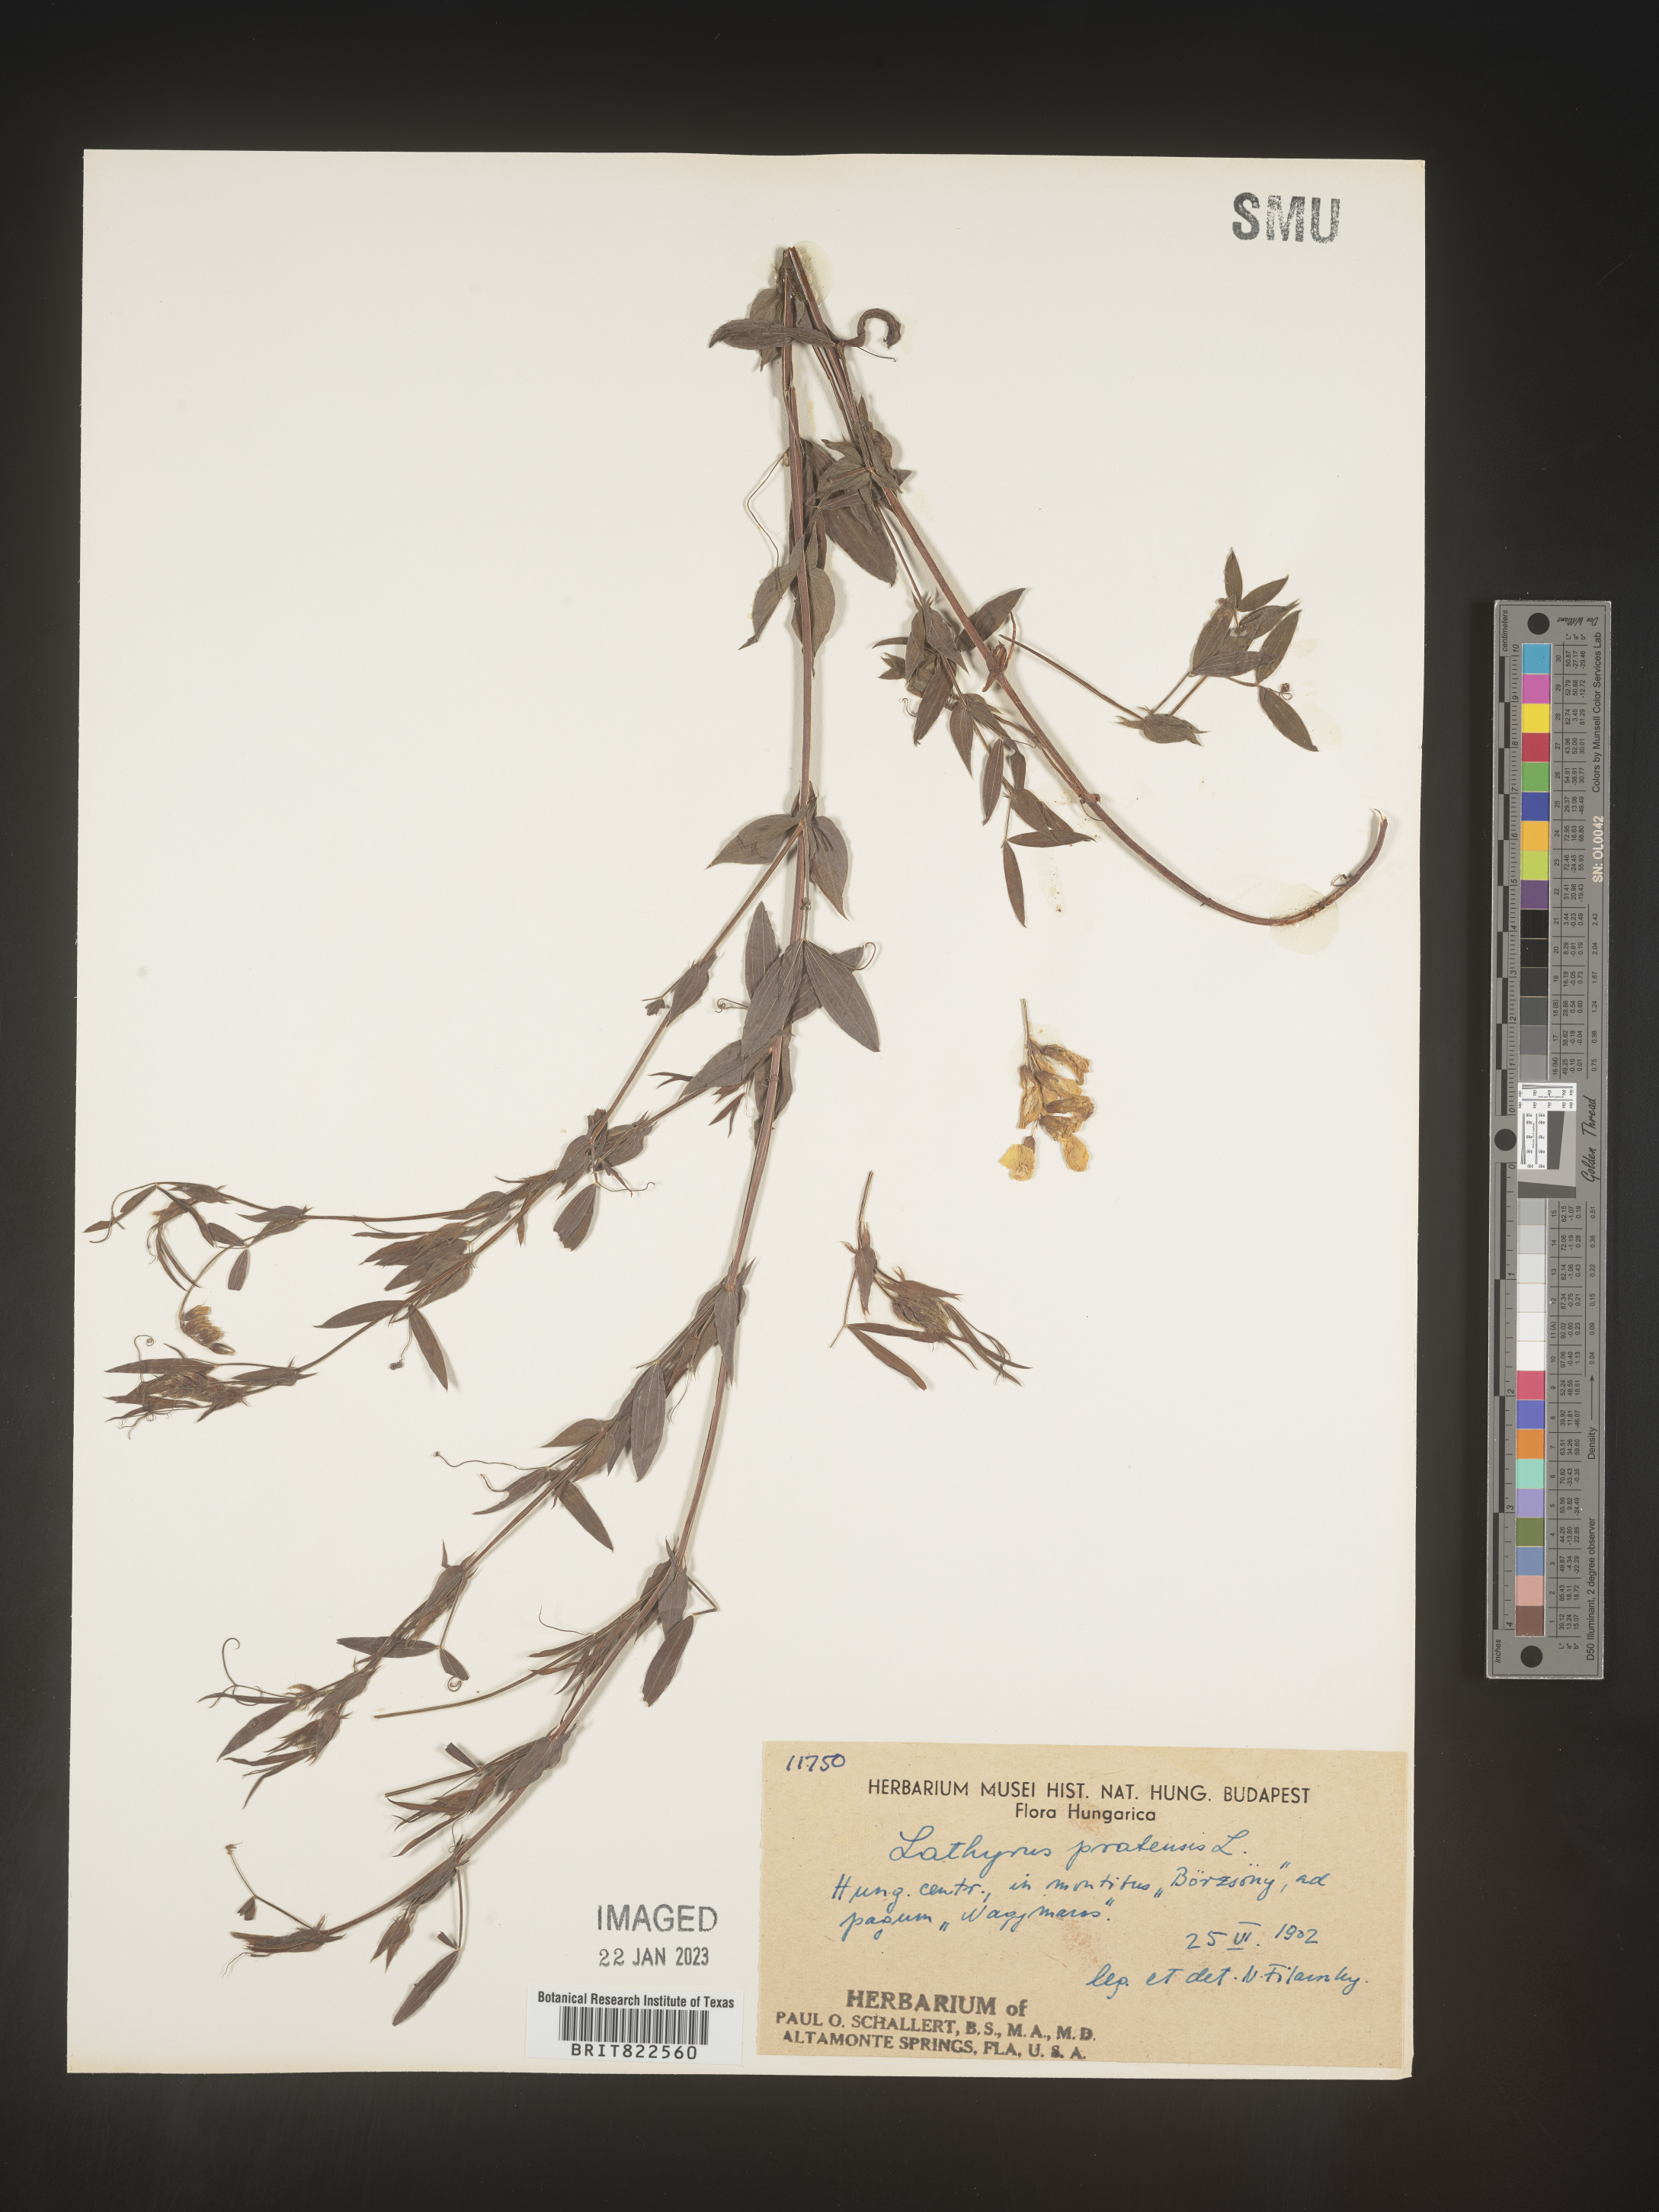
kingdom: Plantae
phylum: Tracheophyta
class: Magnoliopsida
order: Fabales
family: Fabaceae
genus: Lathyrus
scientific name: Lathyrus
